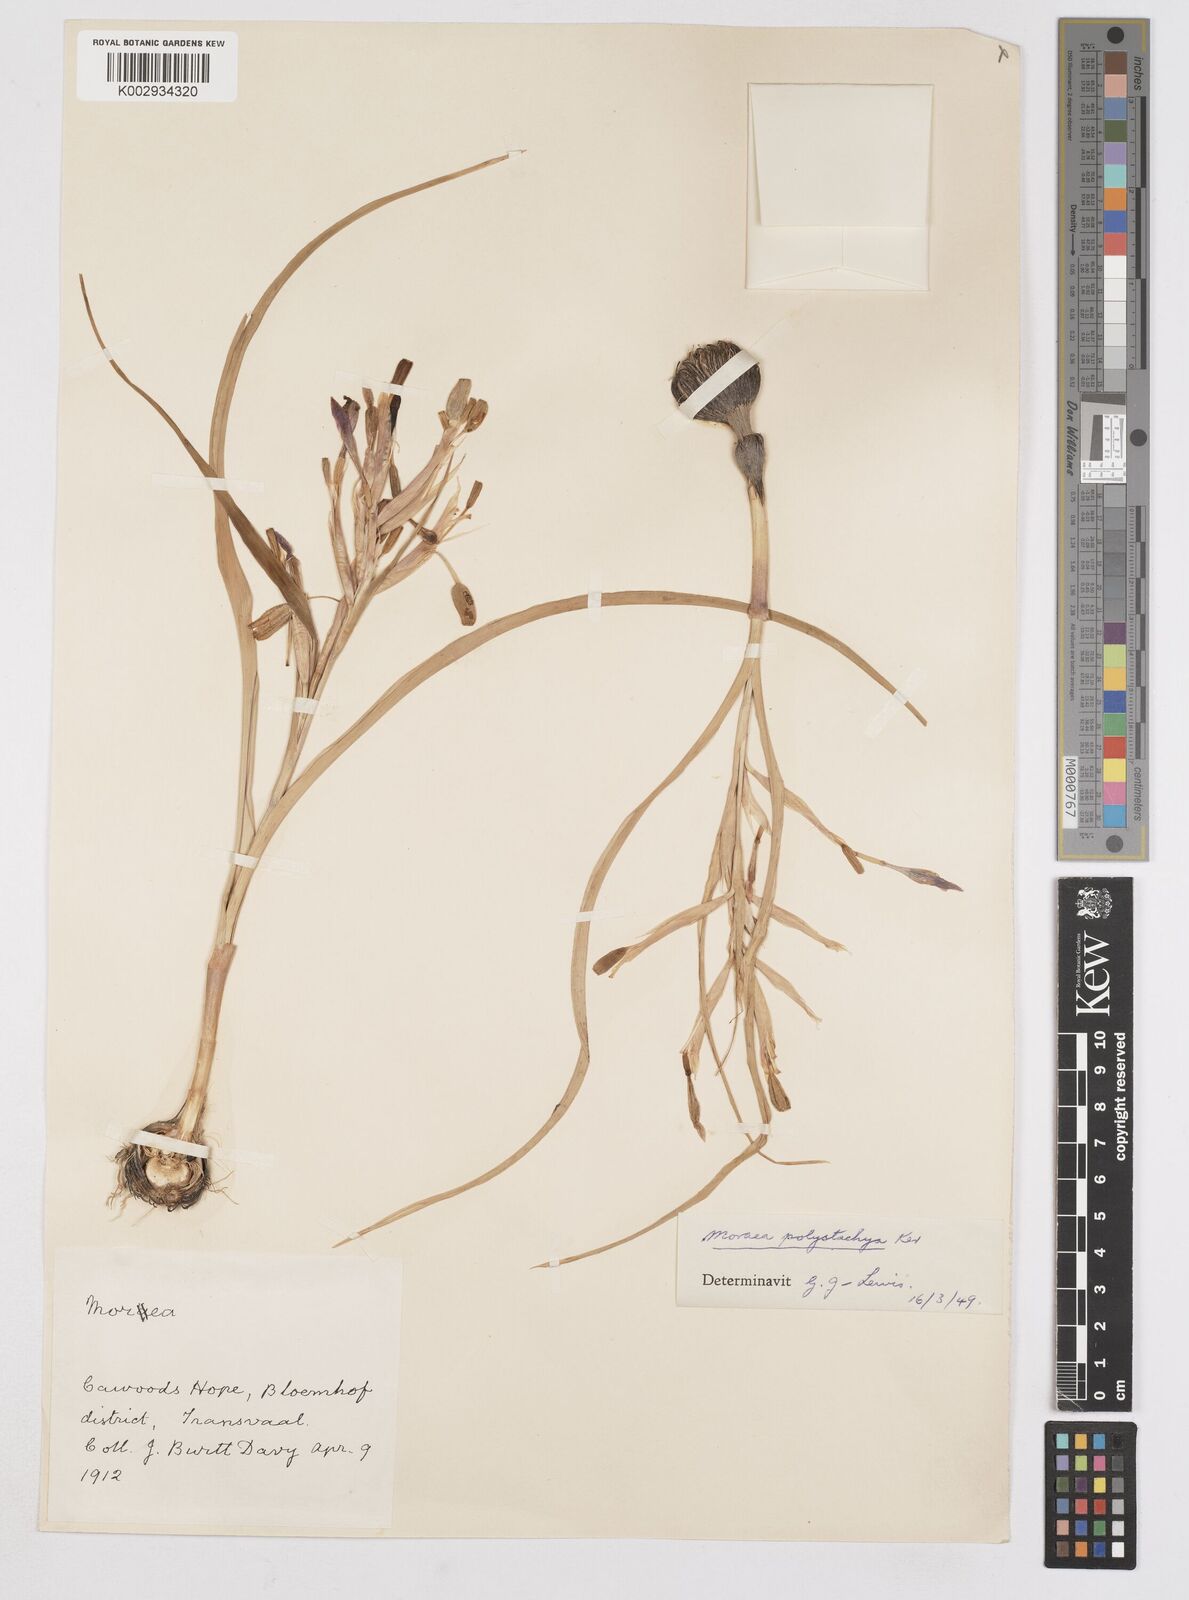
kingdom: Plantae
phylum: Tracheophyta
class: Liliopsida
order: Asparagales
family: Iridaceae
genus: Moraea
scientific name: Moraea polystachya
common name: Blue-tulip
